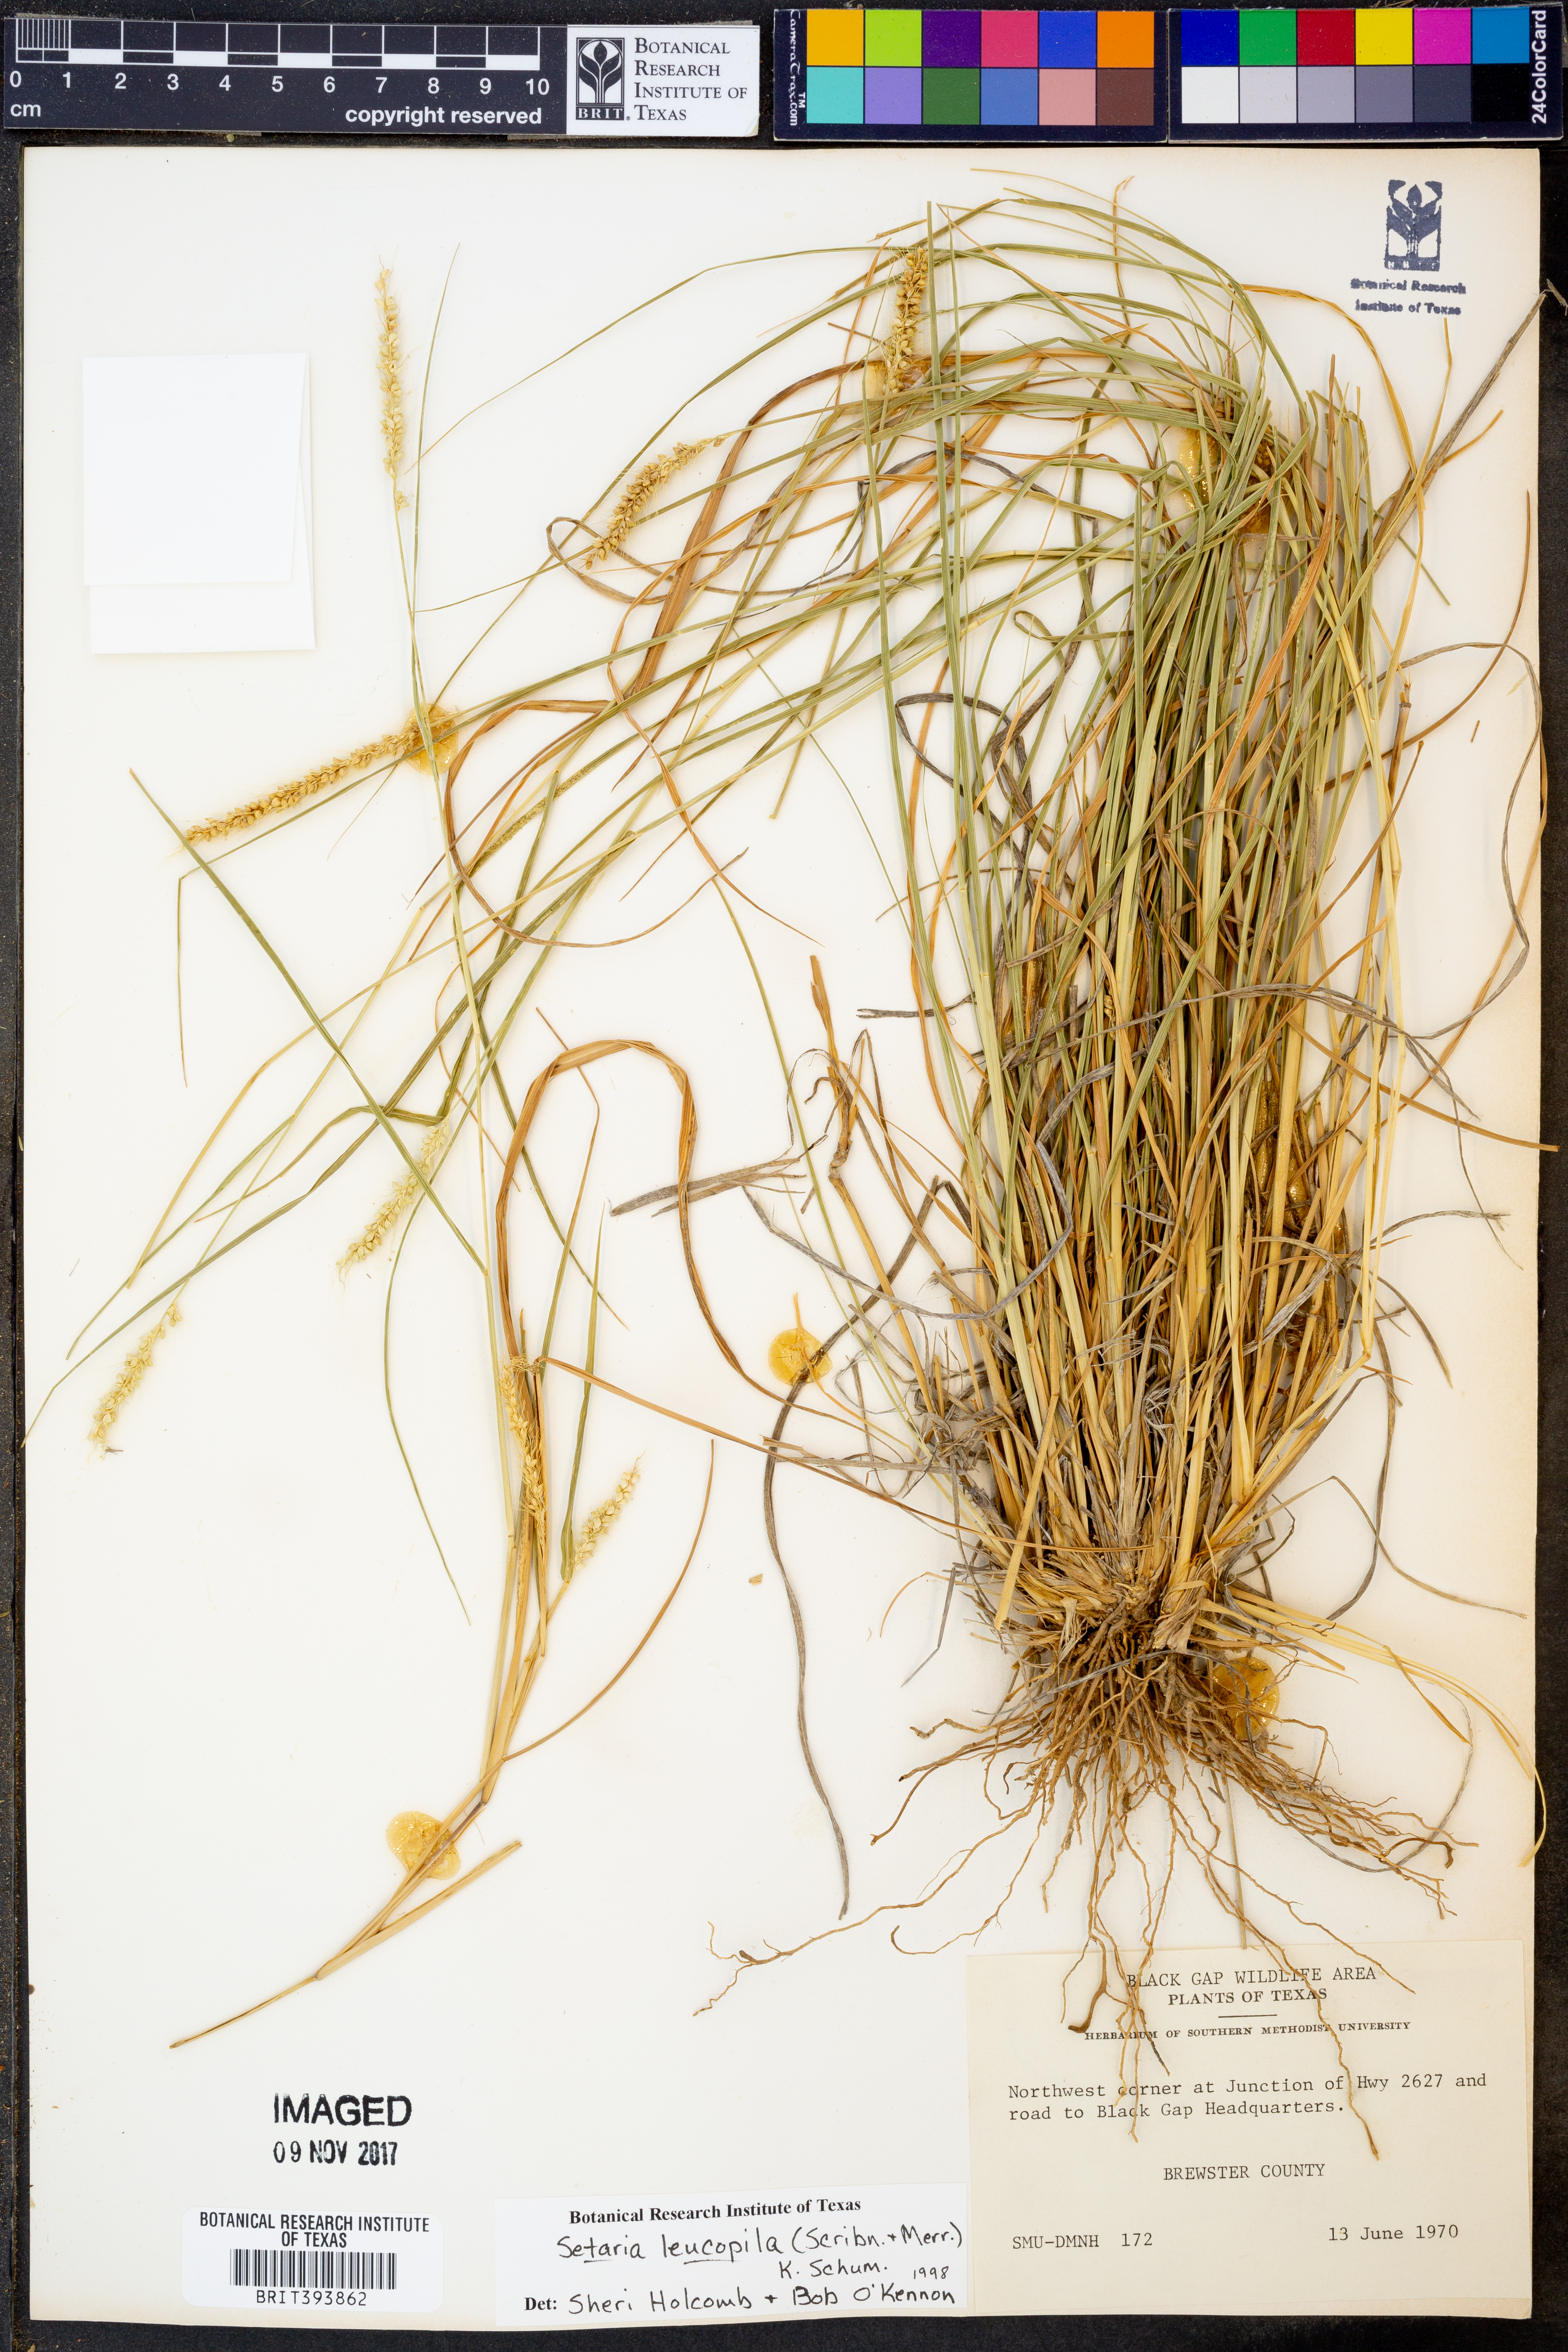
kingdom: Plantae
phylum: Tracheophyta
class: Liliopsida
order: Poales
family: Poaceae
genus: Setaria
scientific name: Setaria leucopila
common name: Plains bristle grass
